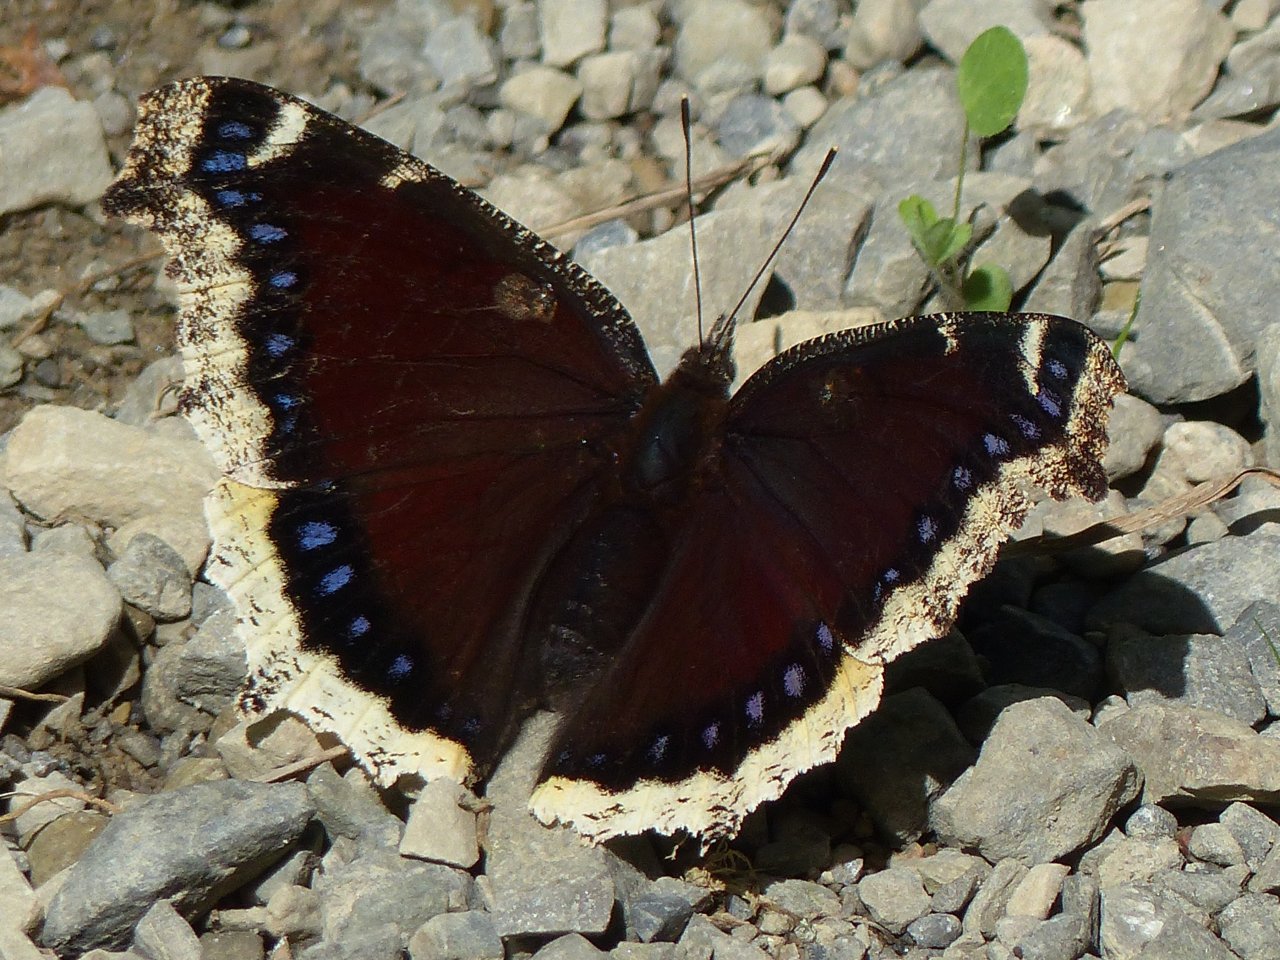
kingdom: Animalia
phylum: Arthropoda
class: Insecta
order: Lepidoptera
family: Nymphalidae
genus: Nymphalis
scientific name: Nymphalis antiopa
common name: Mourning Cloak
